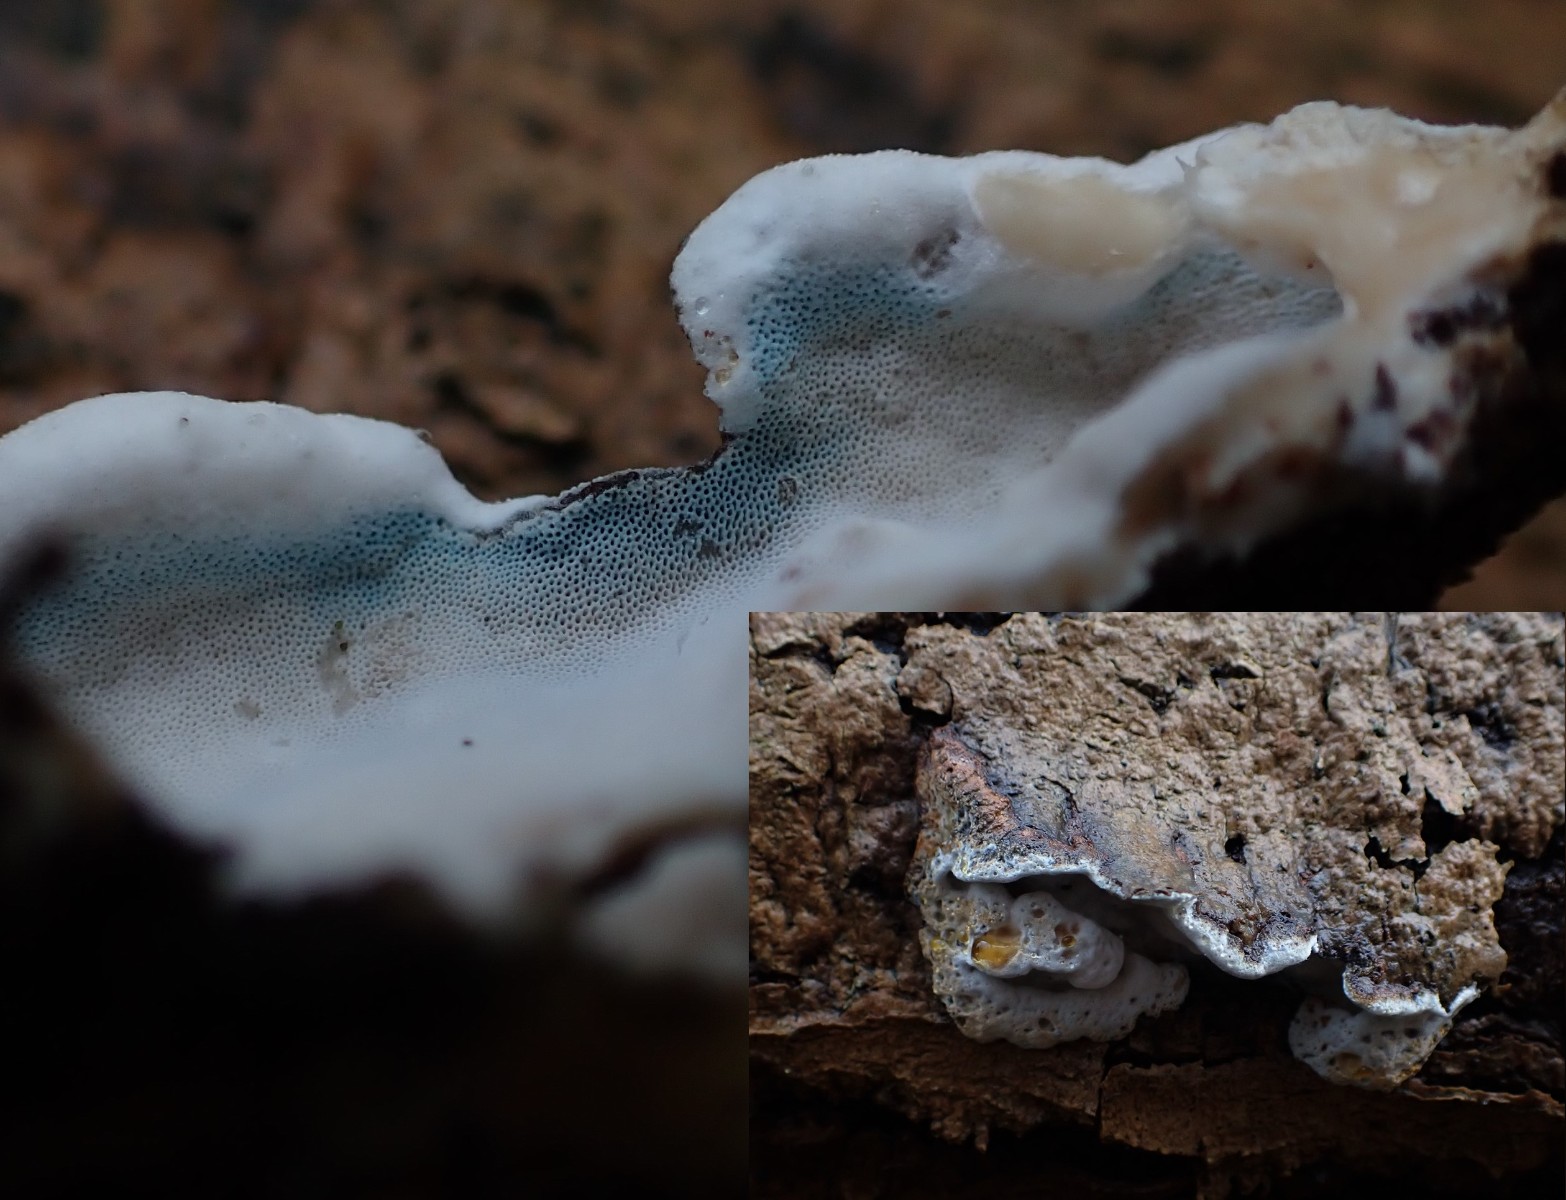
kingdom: Fungi
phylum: Basidiomycota
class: Agaricomycetes
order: Polyporales
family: Incrustoporiaceae
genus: Skeletocutis
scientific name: Skeletocutis nemoralis
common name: stor krystalporesvamp
